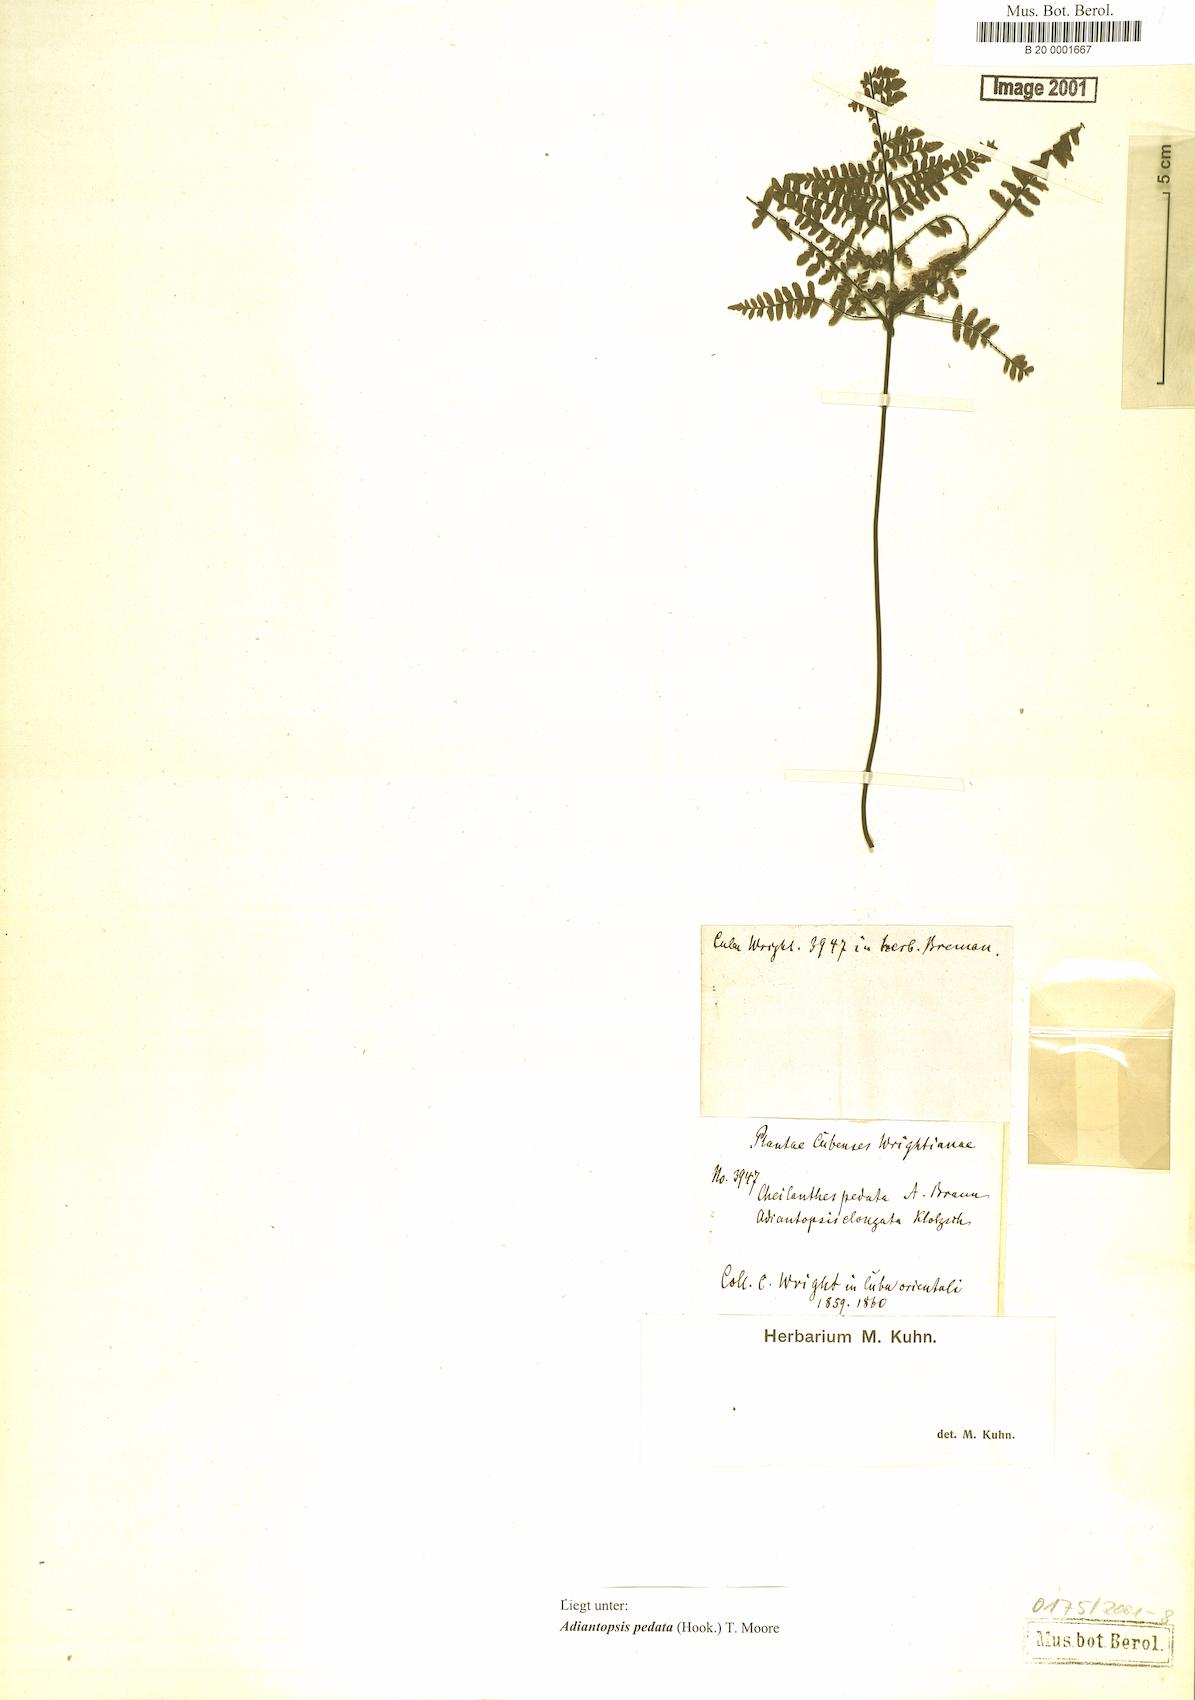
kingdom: Plantae
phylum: Tracheophyta
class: Polypodiopsida
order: Polypodiales
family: Pteridaceae
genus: Adiantopsis
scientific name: Adiantopsis pentagona
